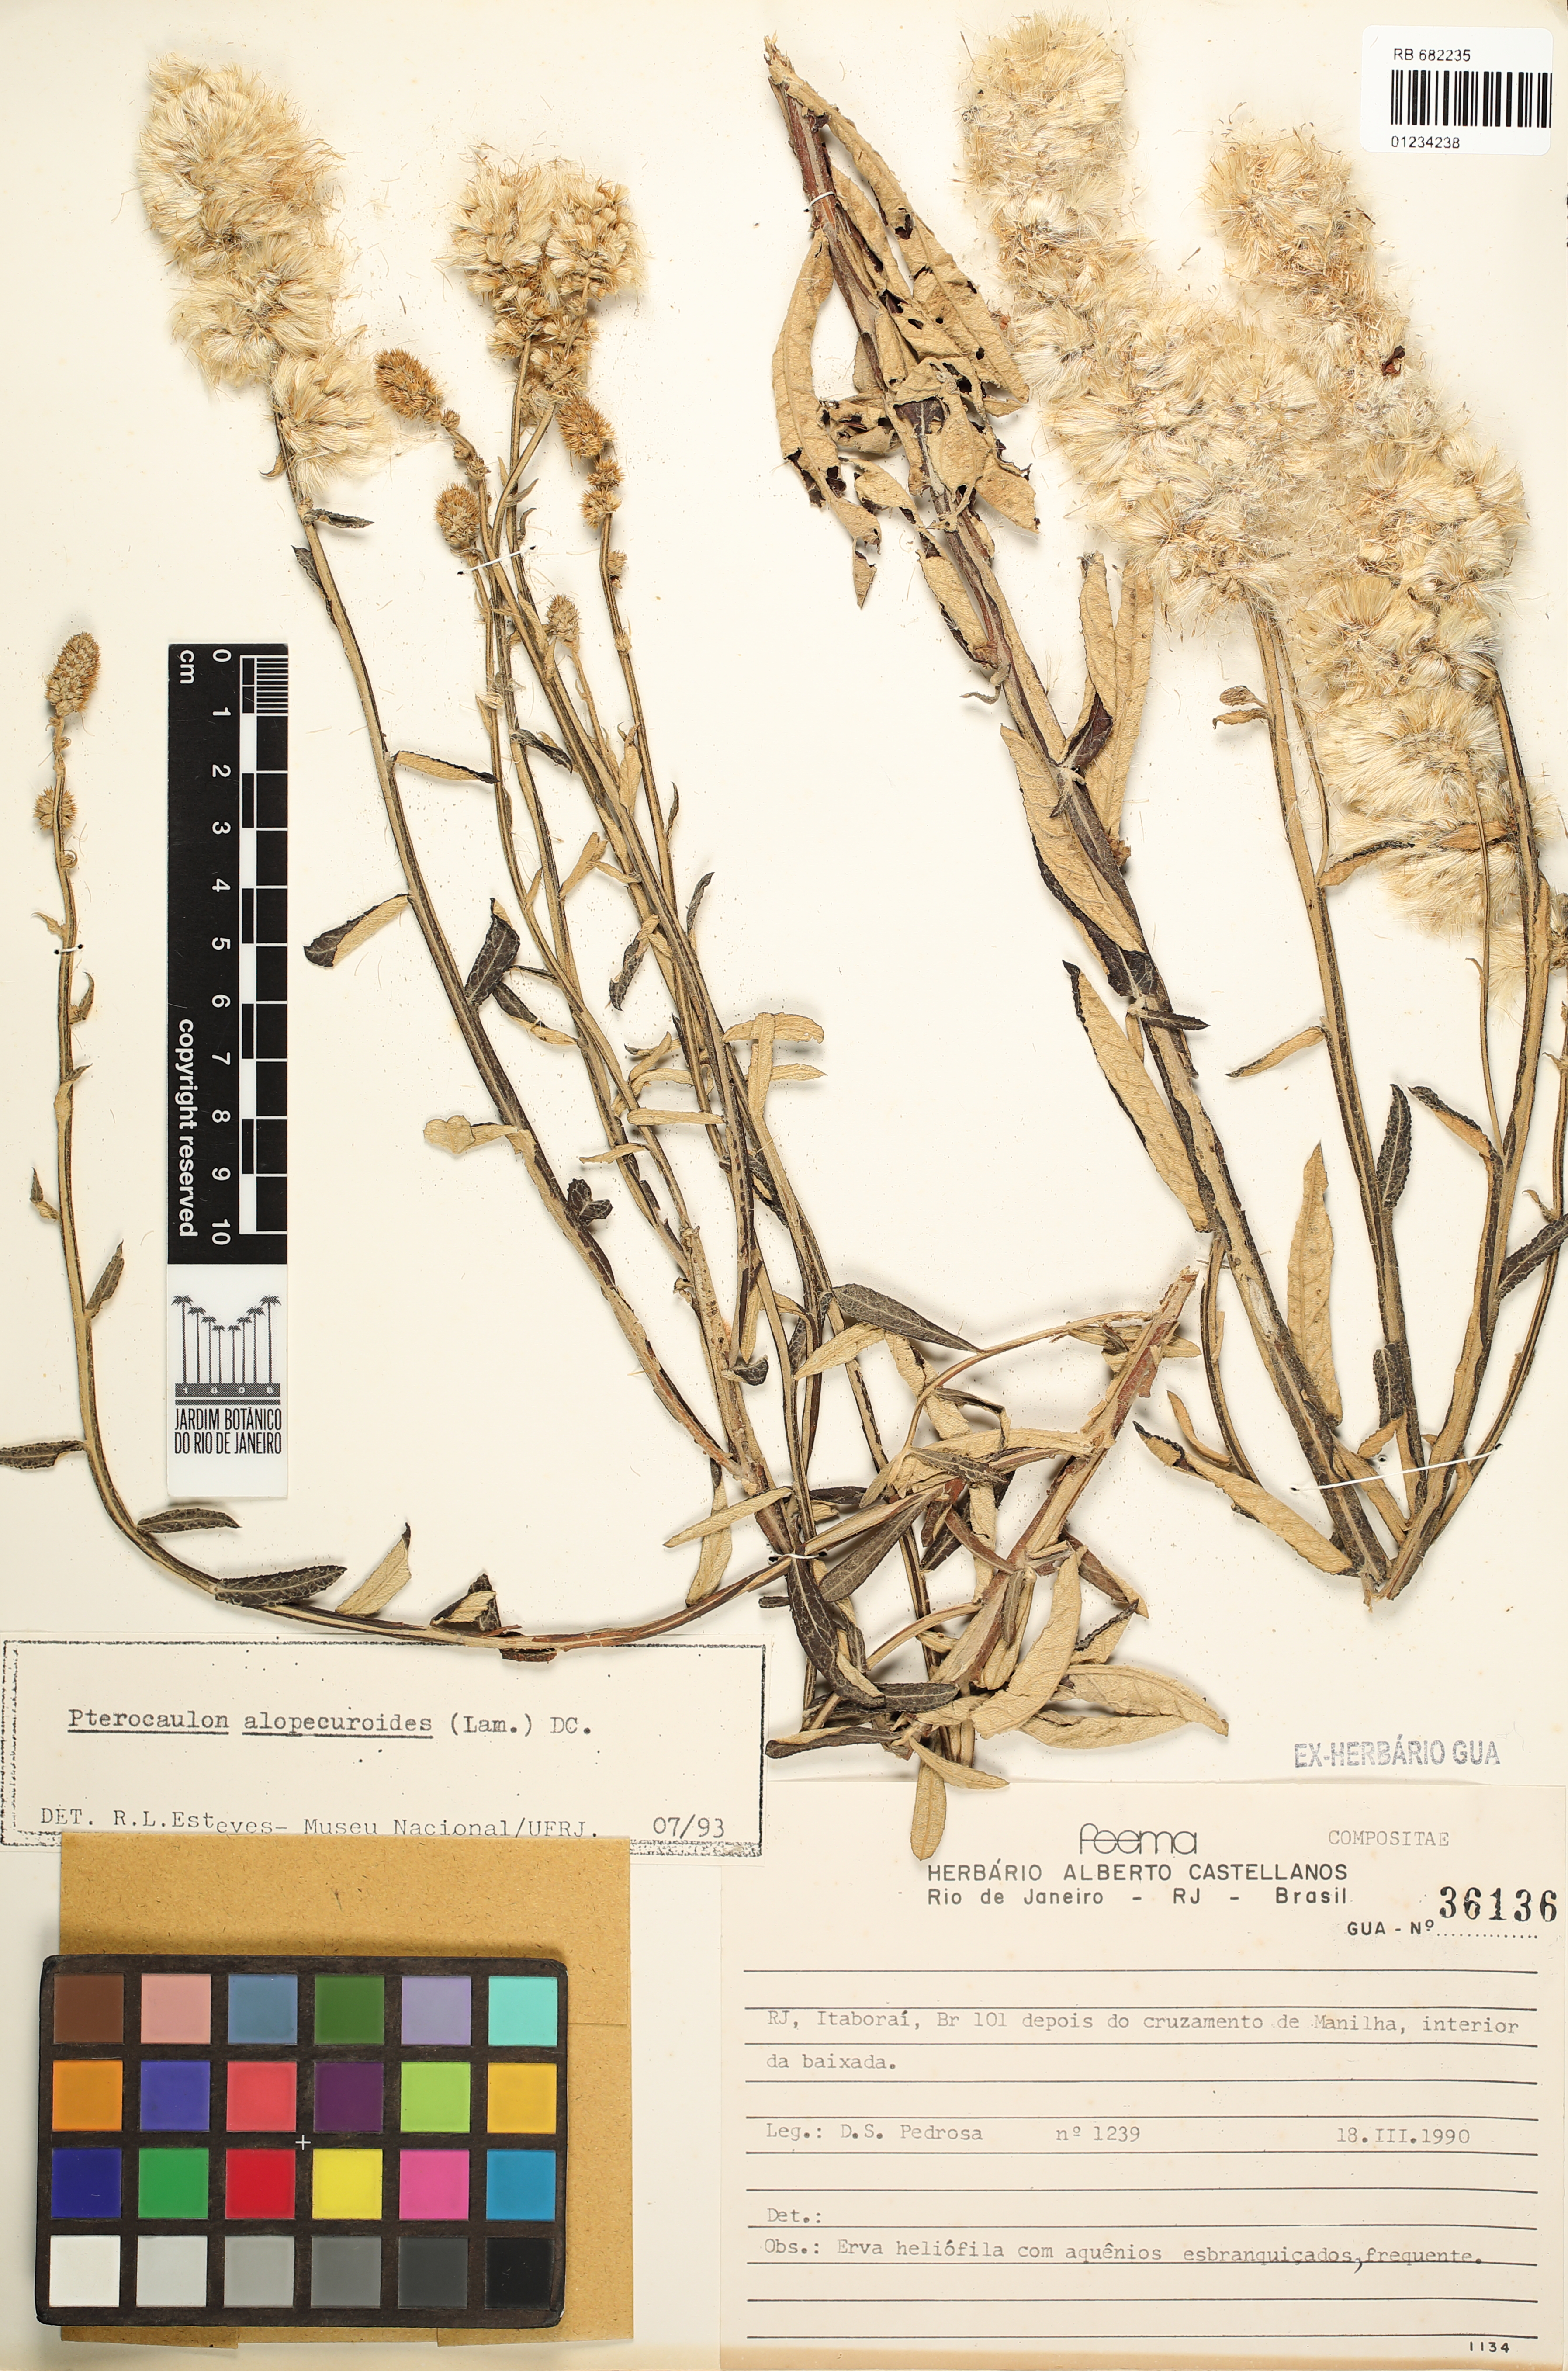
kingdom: Plantae
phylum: Tracheophyta
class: Magnoliopsida
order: Asterales
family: Asteraceae
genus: Pterocaulon
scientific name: Pterocaulon alopecuroides
